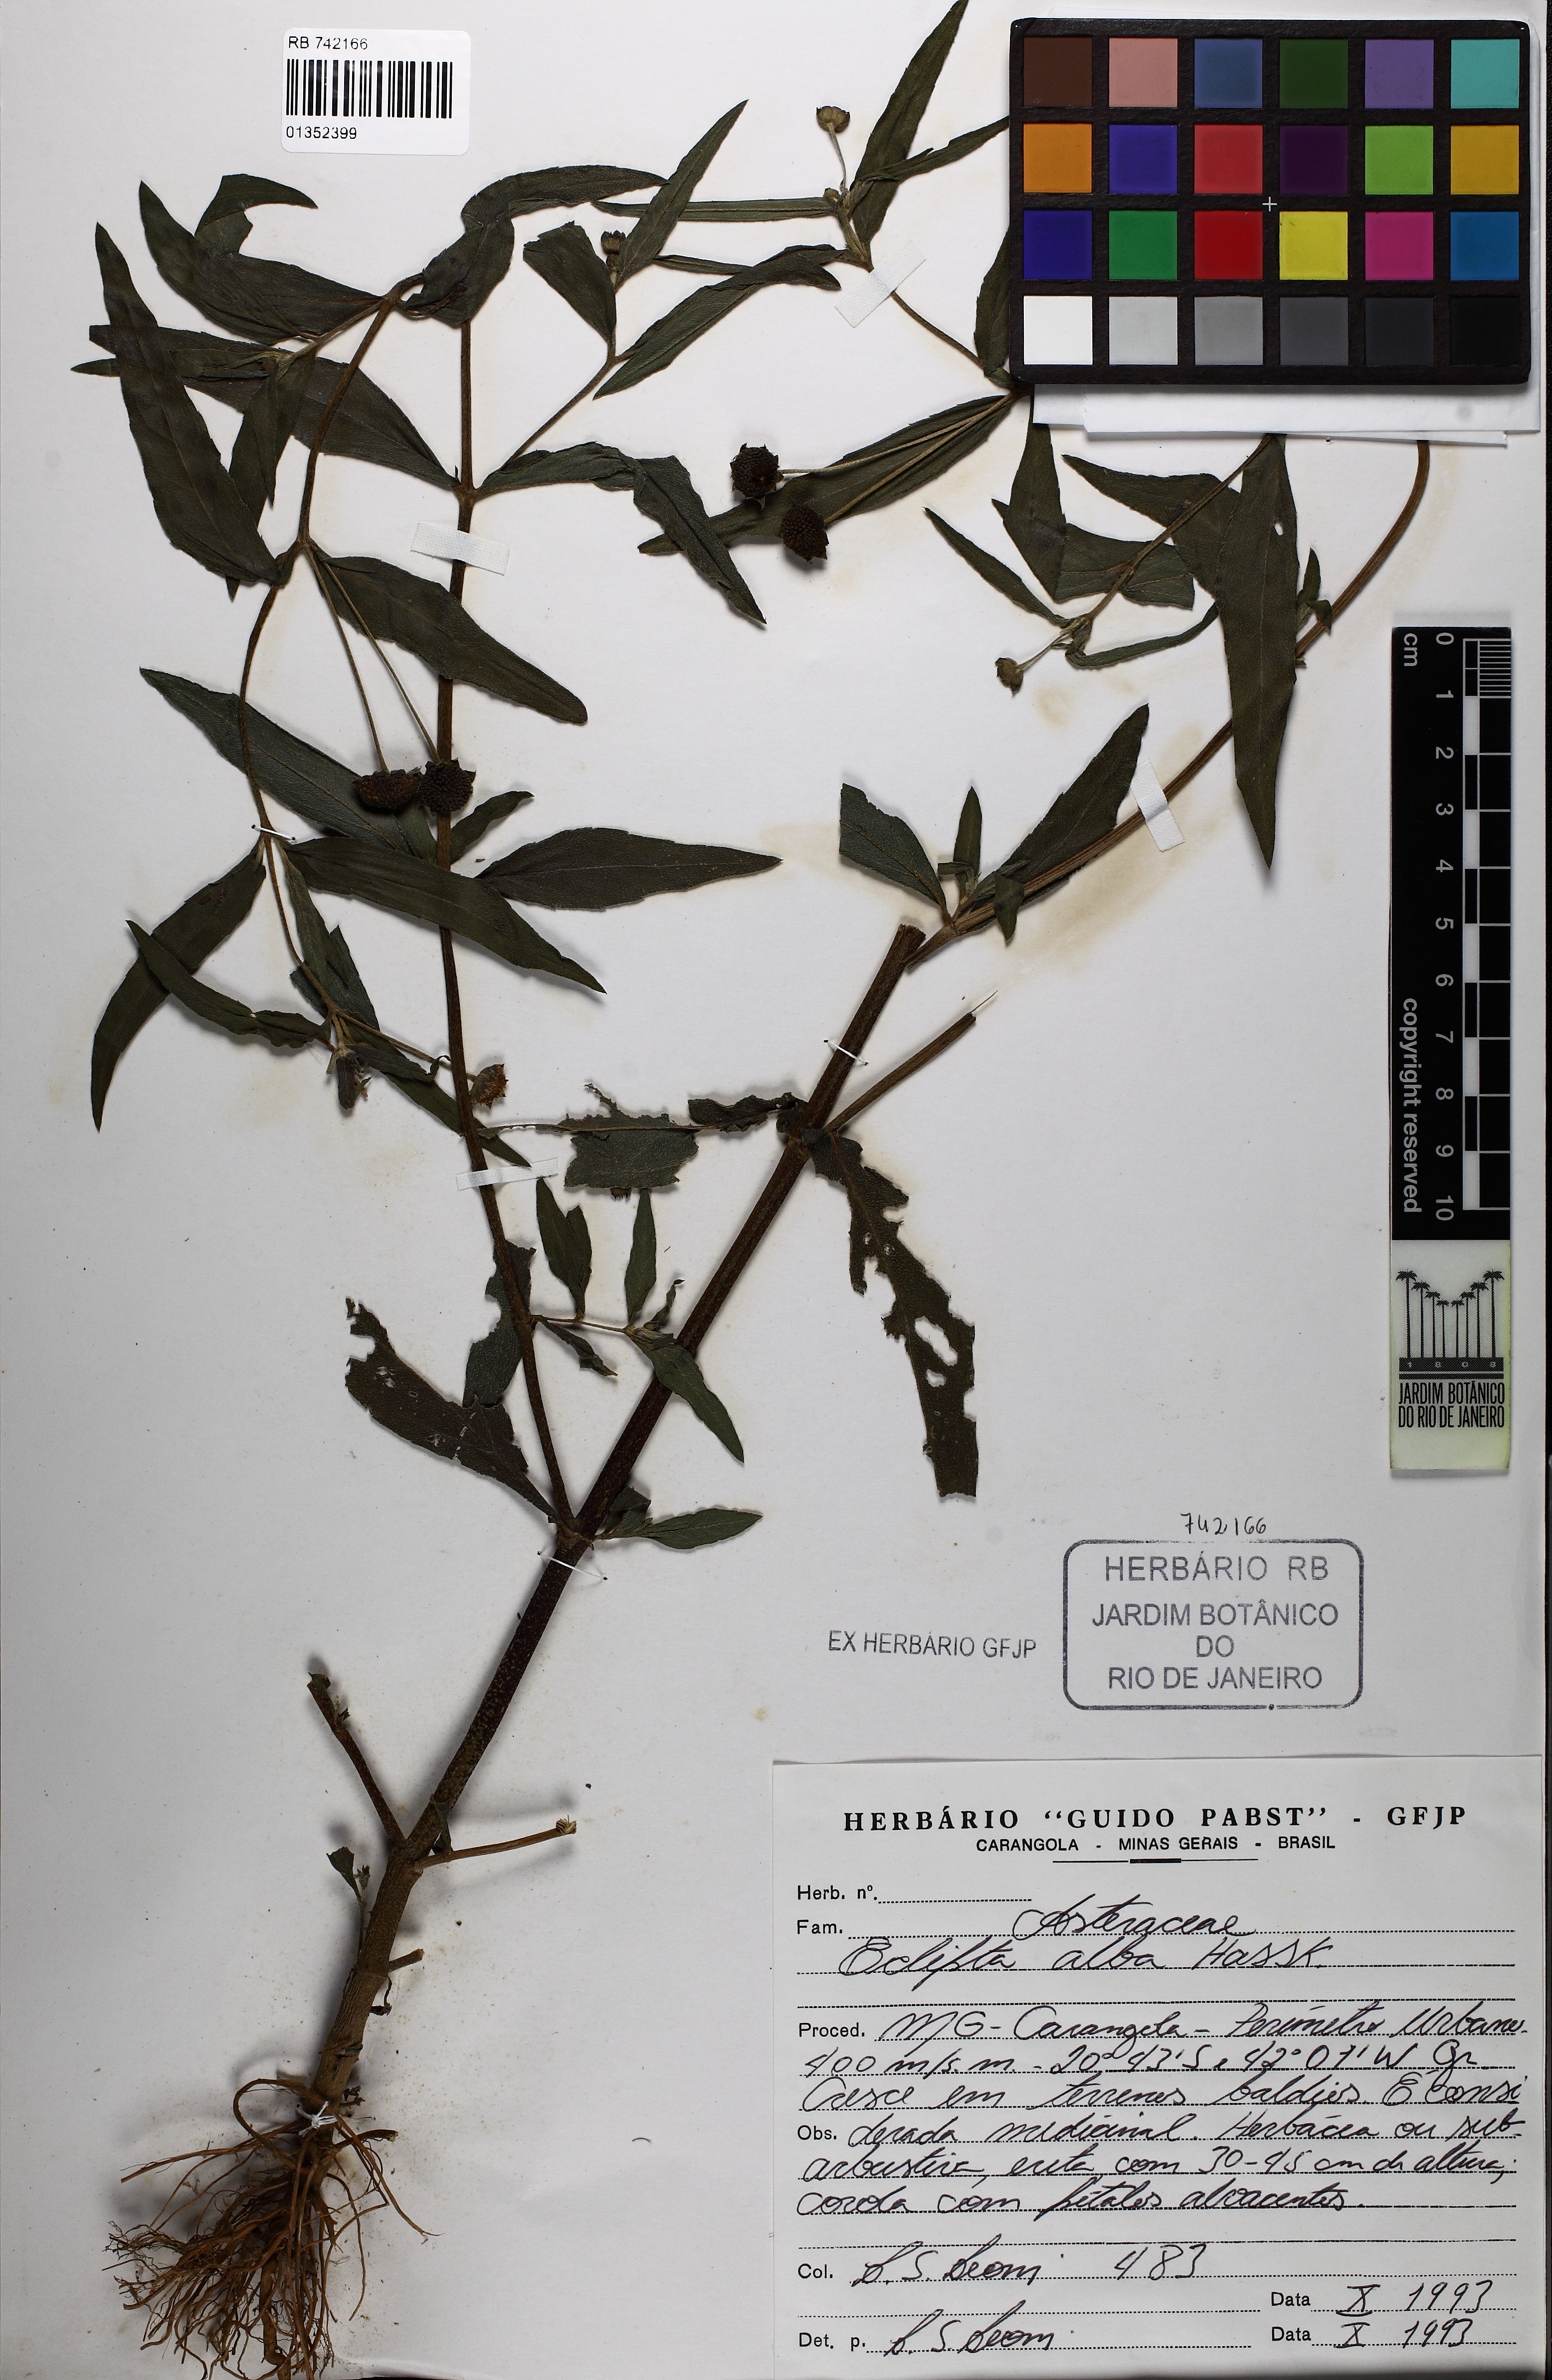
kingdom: Plantae
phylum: Tracheophyta
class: Magnoliopsida
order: Asterales
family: Asteraceae
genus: Eclipta
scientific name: Eclipta prostrata
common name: False daisy
